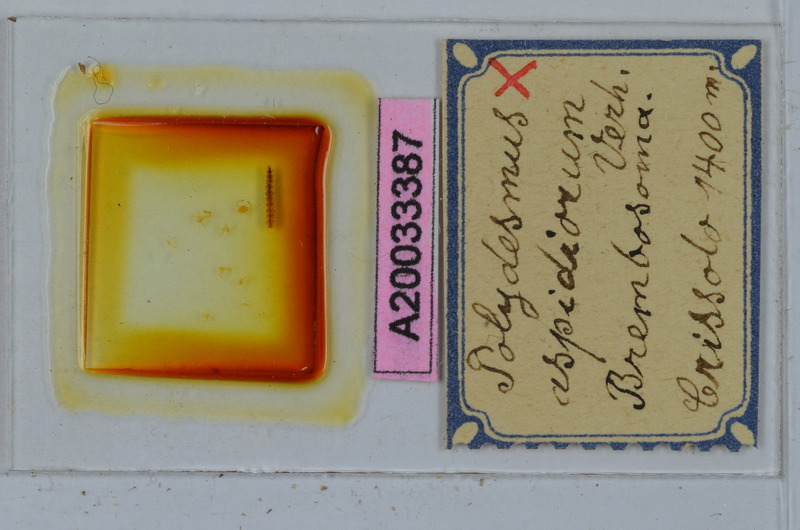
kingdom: Animalia
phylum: Arthropoda
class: Diplopoda
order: Polydesmida
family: Polydesmidae
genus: Polydesmus
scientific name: Polydesmus
